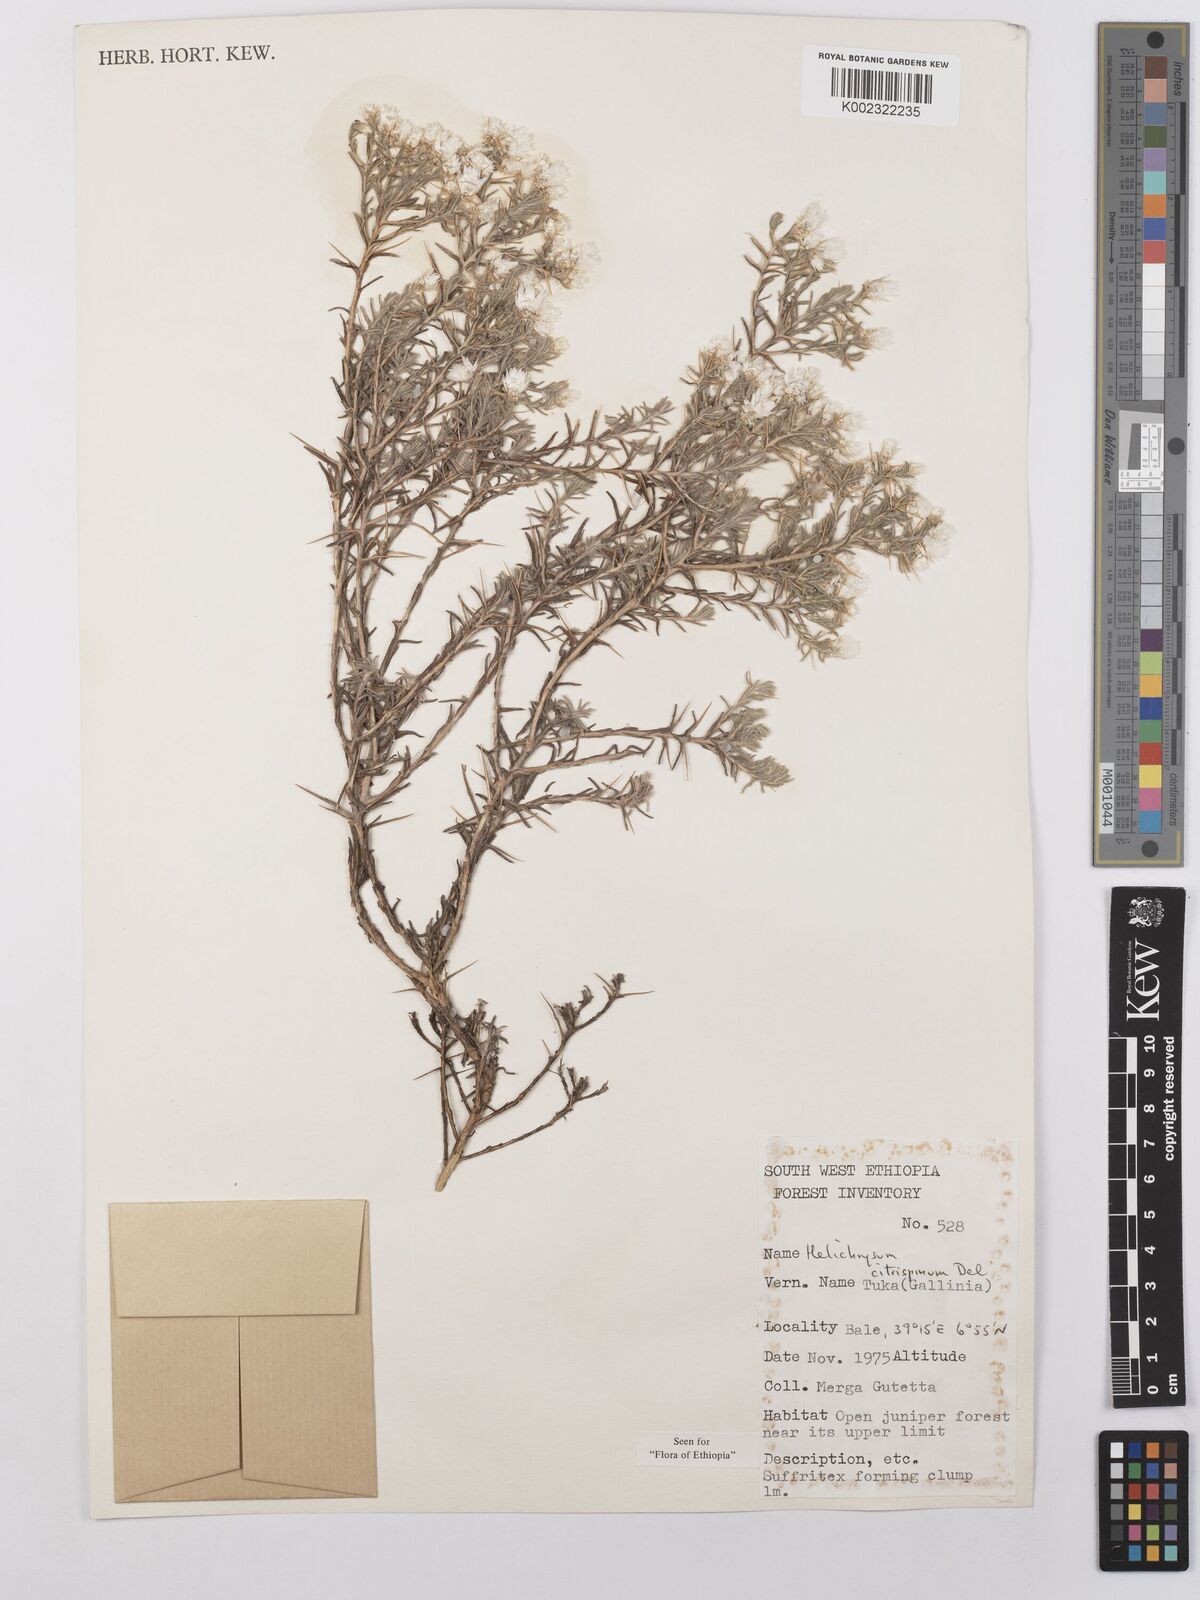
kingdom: Plantae
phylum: Tracheophyta
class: Magnoliopsida
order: Asterales
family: Asteraceae
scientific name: Asteraceae
